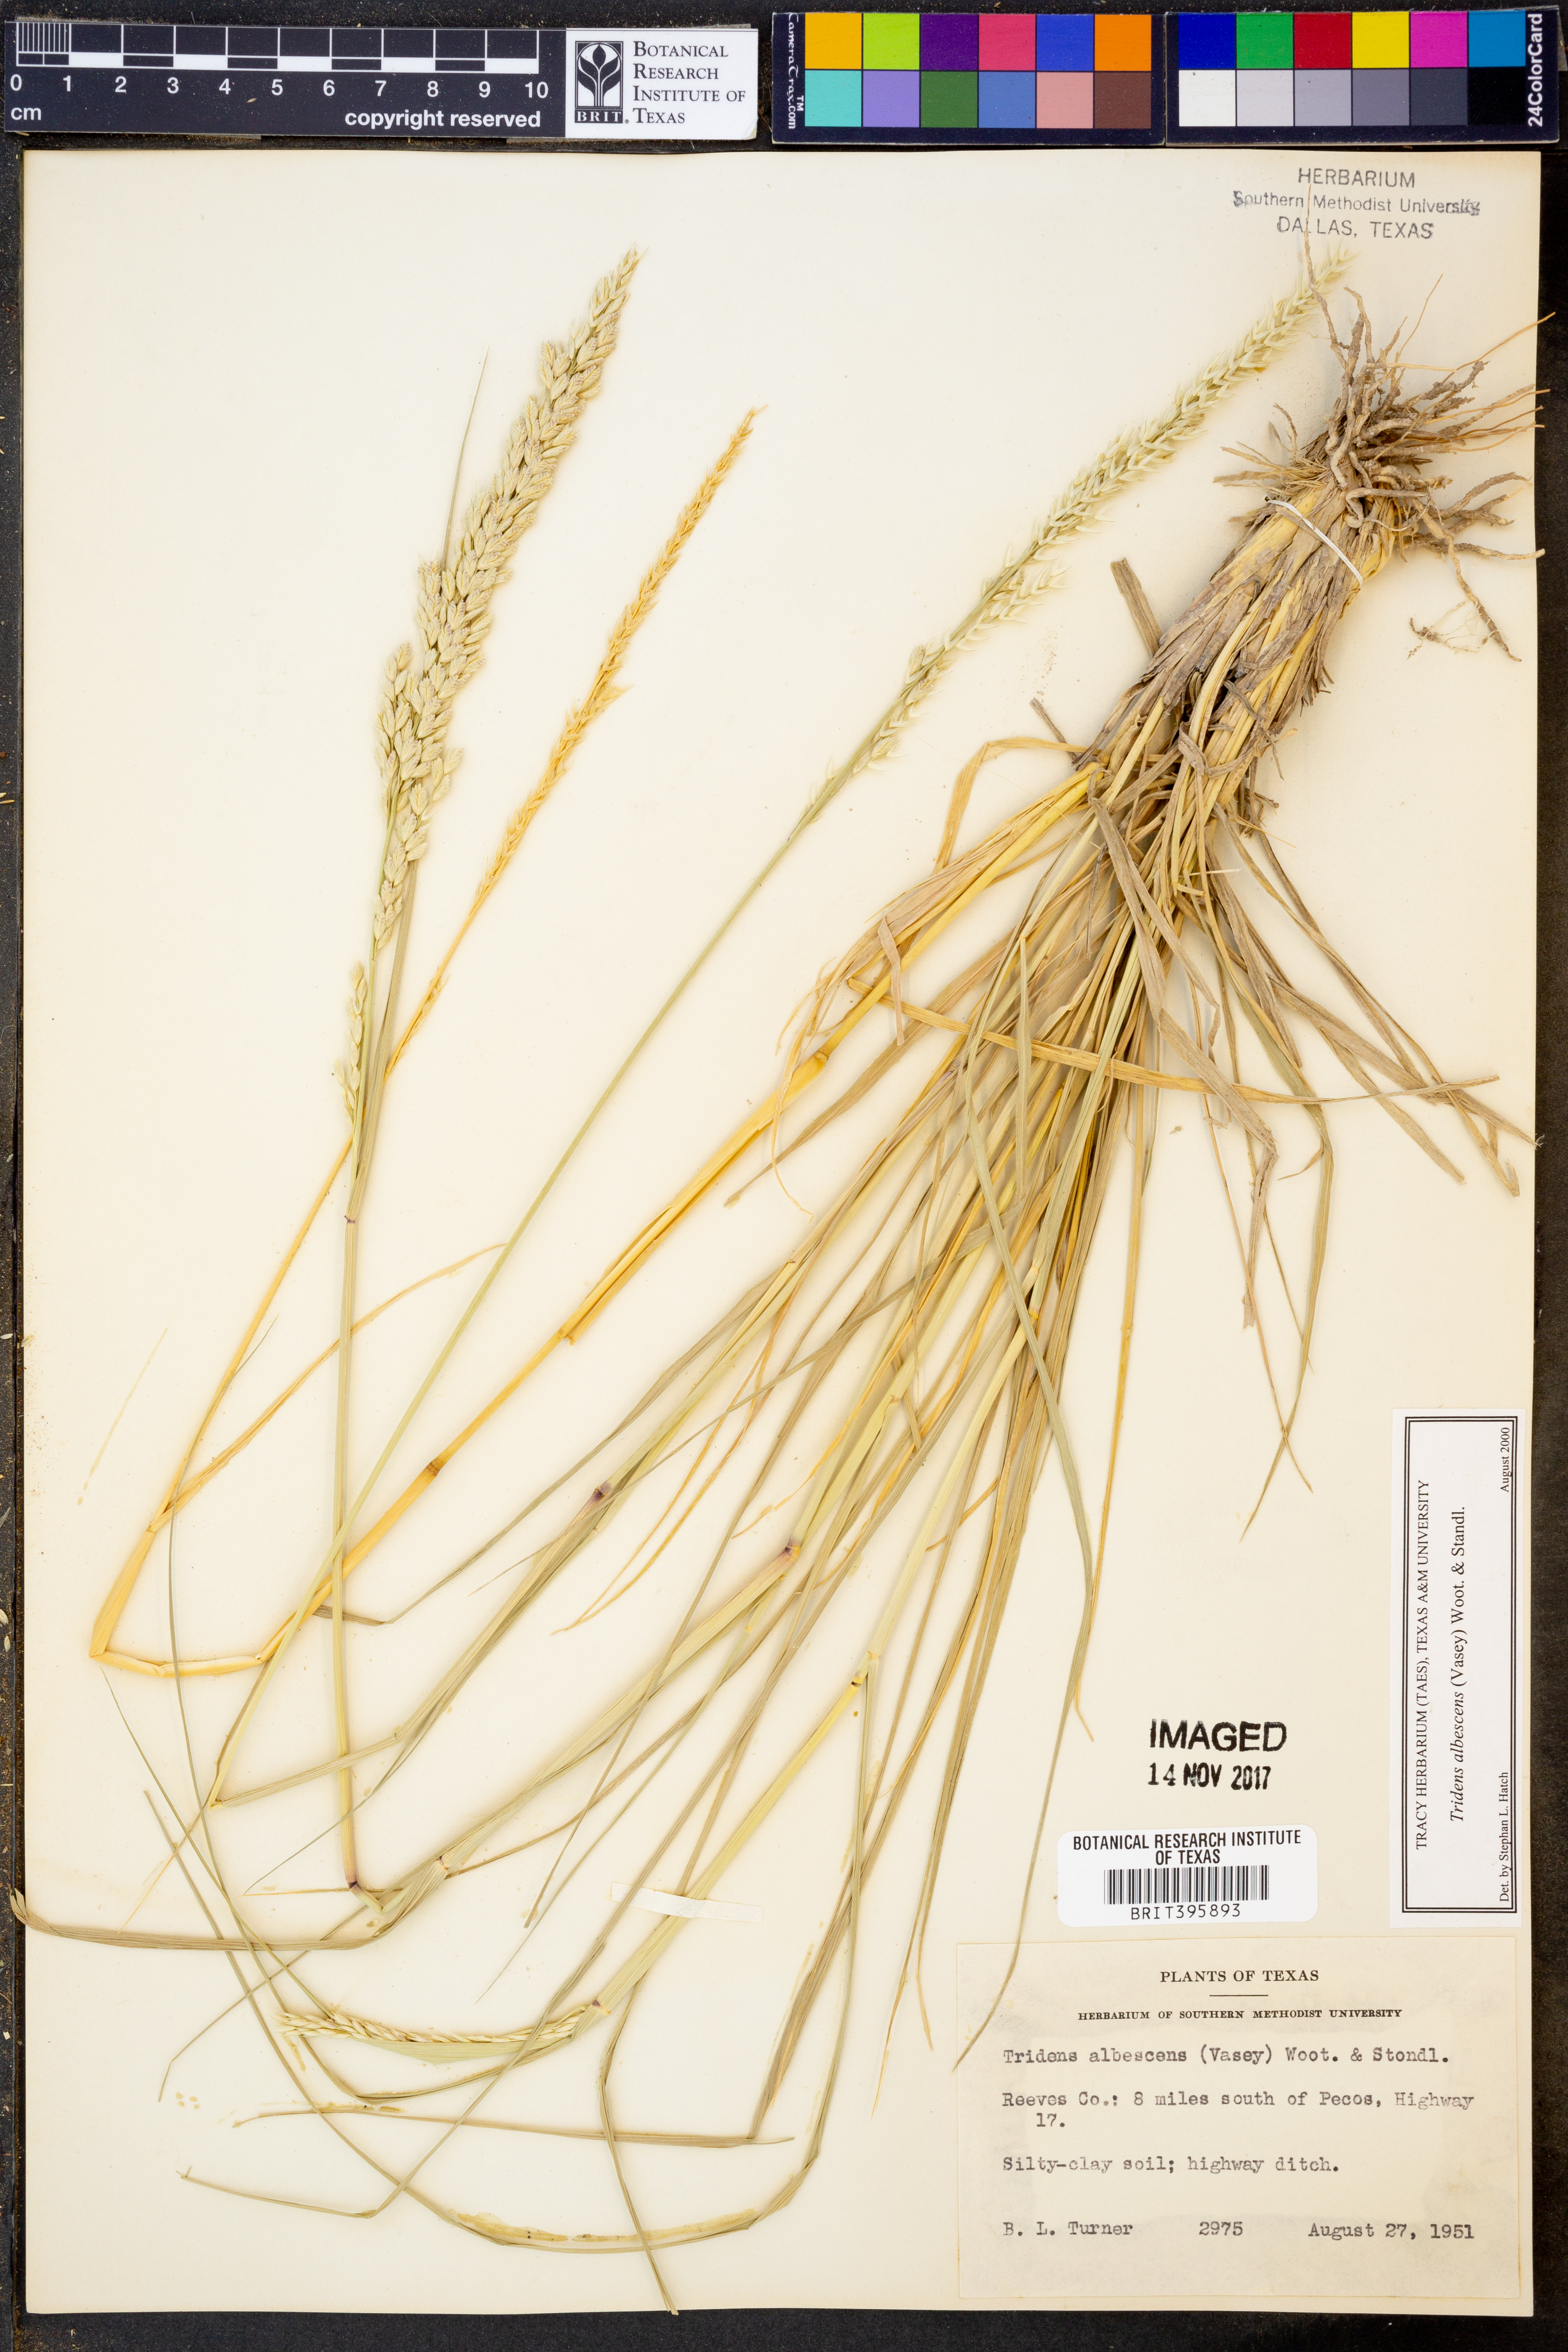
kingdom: Plantae
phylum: Tracheophyta
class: Liliopsida
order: Poales
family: Poaceae
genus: Tridens
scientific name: Tridens albescens
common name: White tridens
